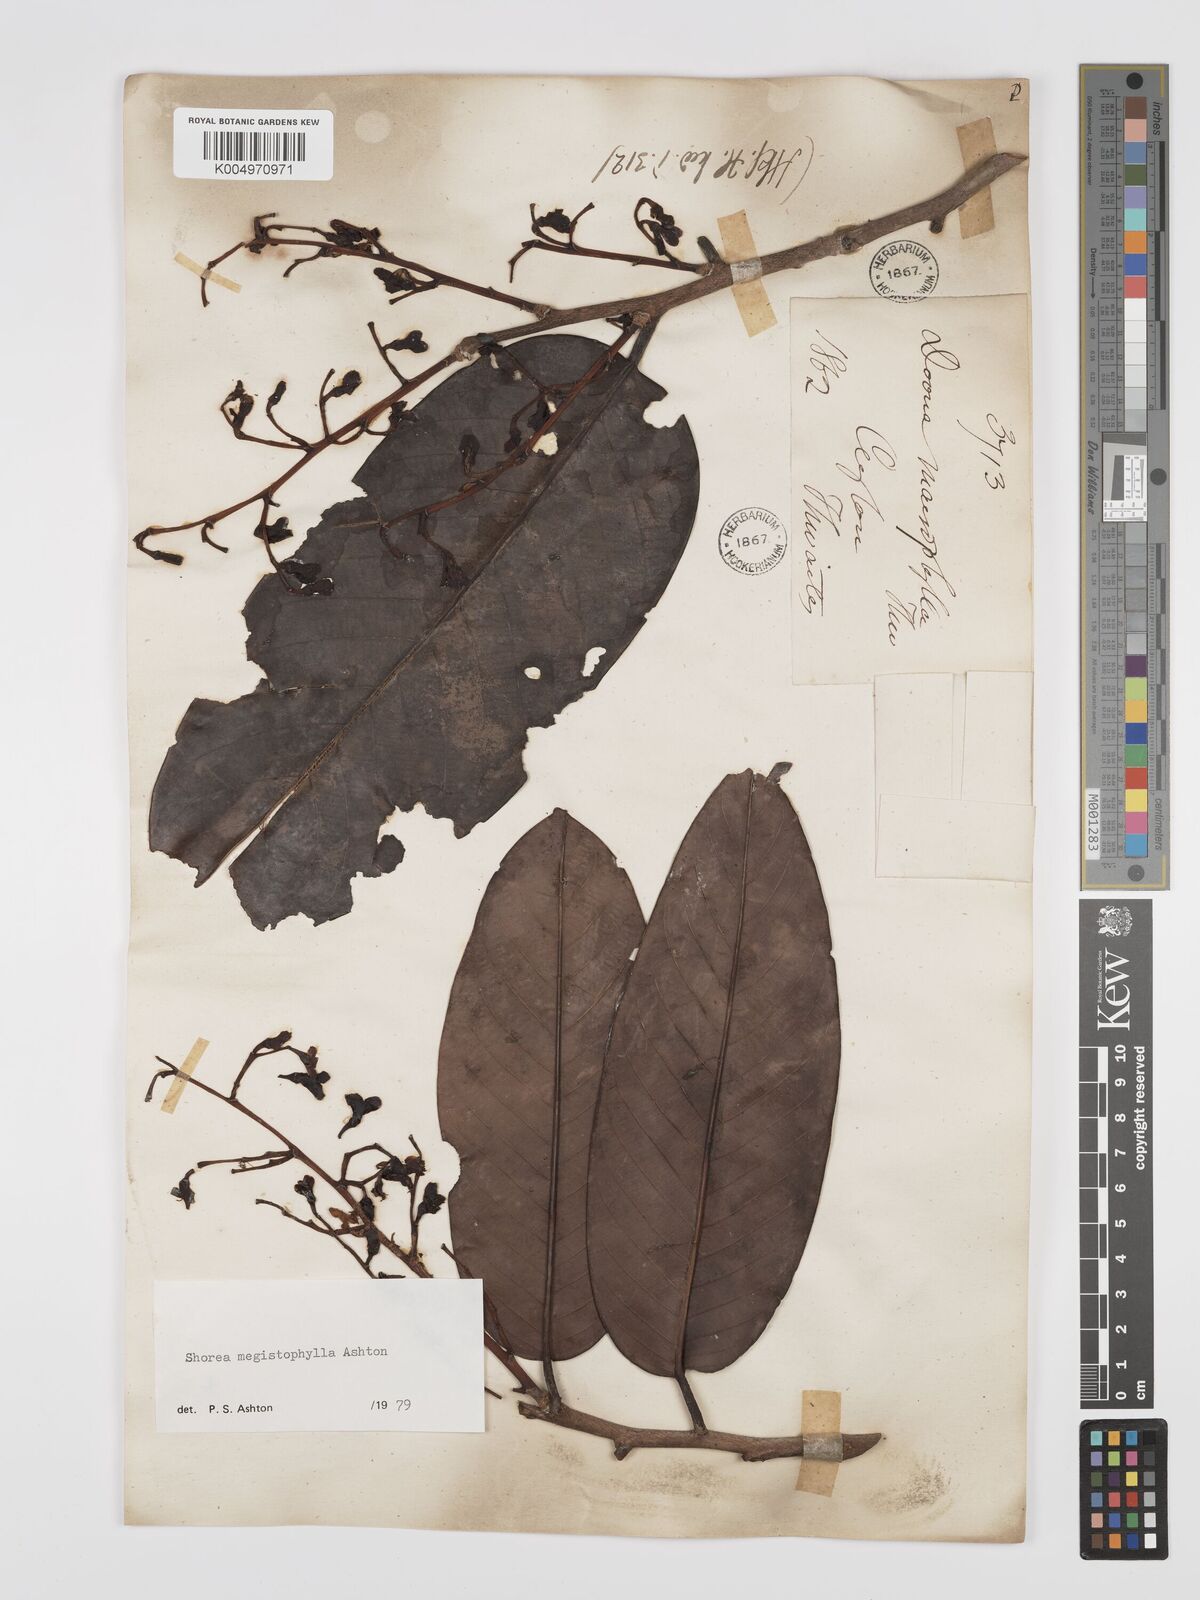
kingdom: Plantae
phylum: Tracheophyta
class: Magnoliopsida
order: Malvales
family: Dipterocarpaceae
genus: Doona
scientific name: Doona macrophylla
